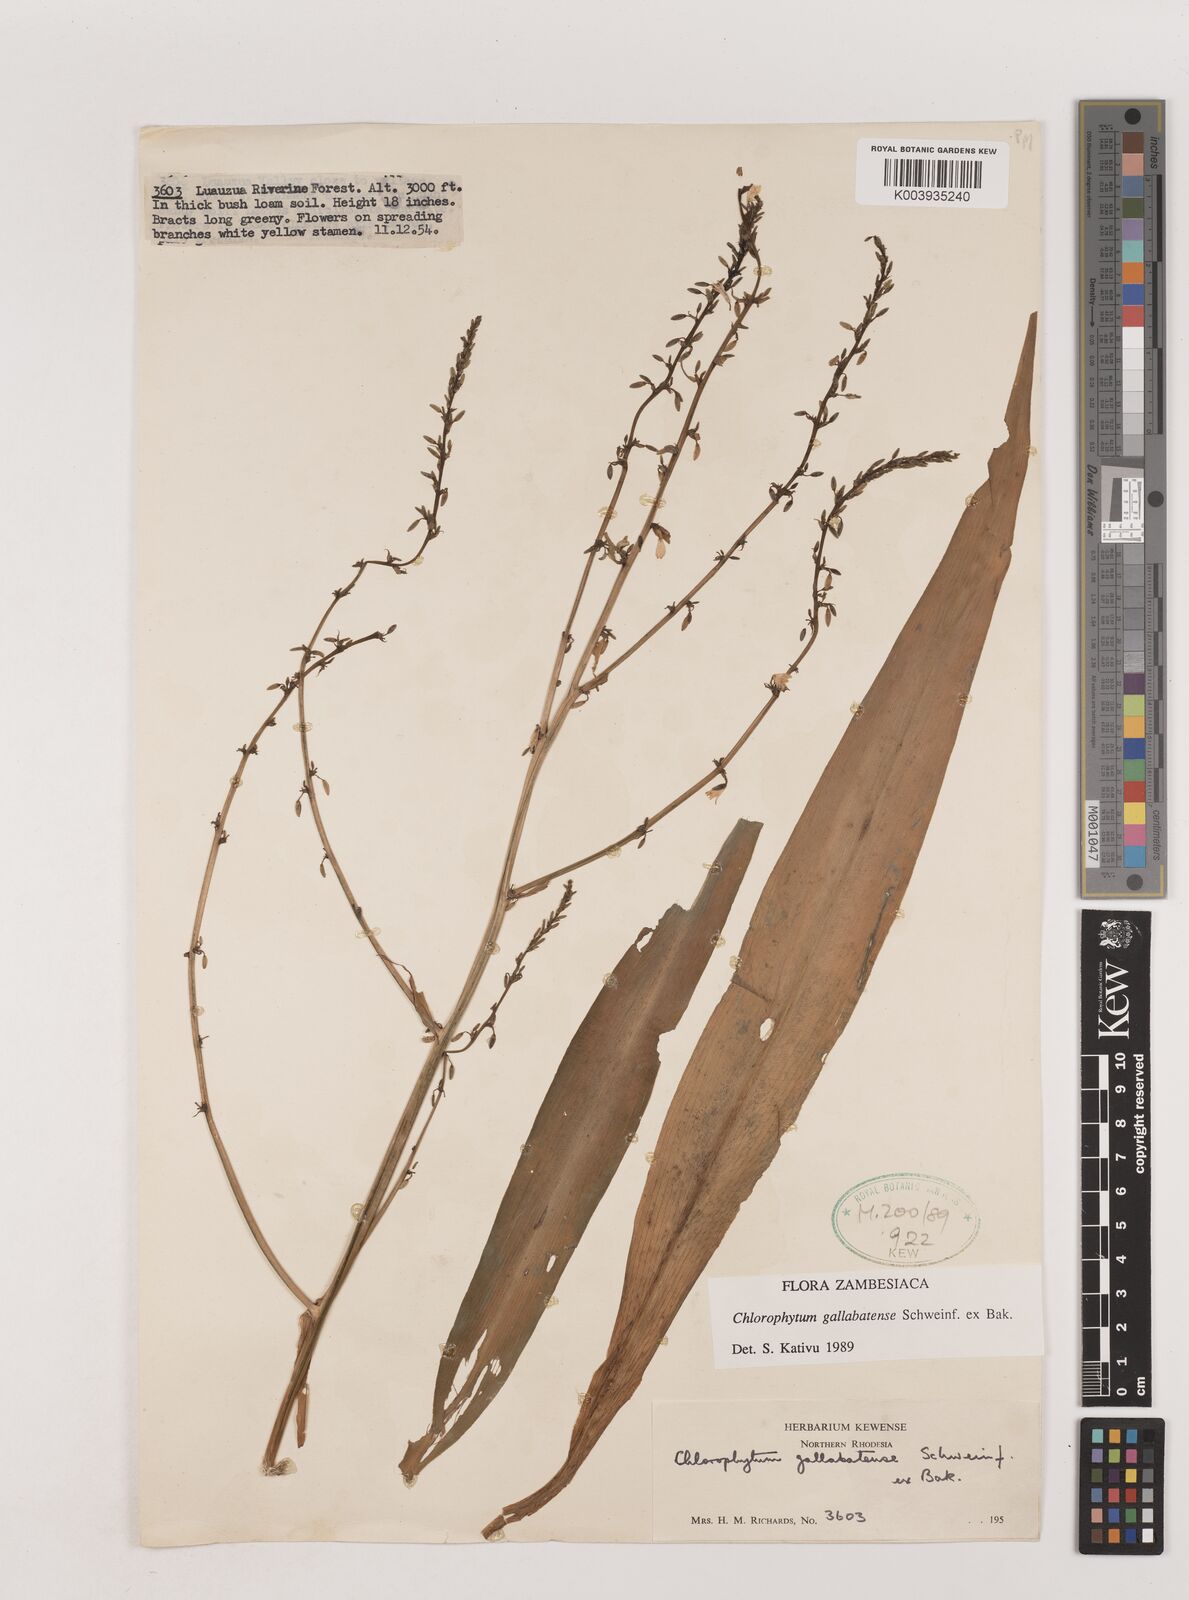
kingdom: Plantae
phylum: Tracheophyta
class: Liliopsida
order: Asparagales
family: Asparagaceae
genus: Chlorophytum
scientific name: Chlorophytum gallabatense
